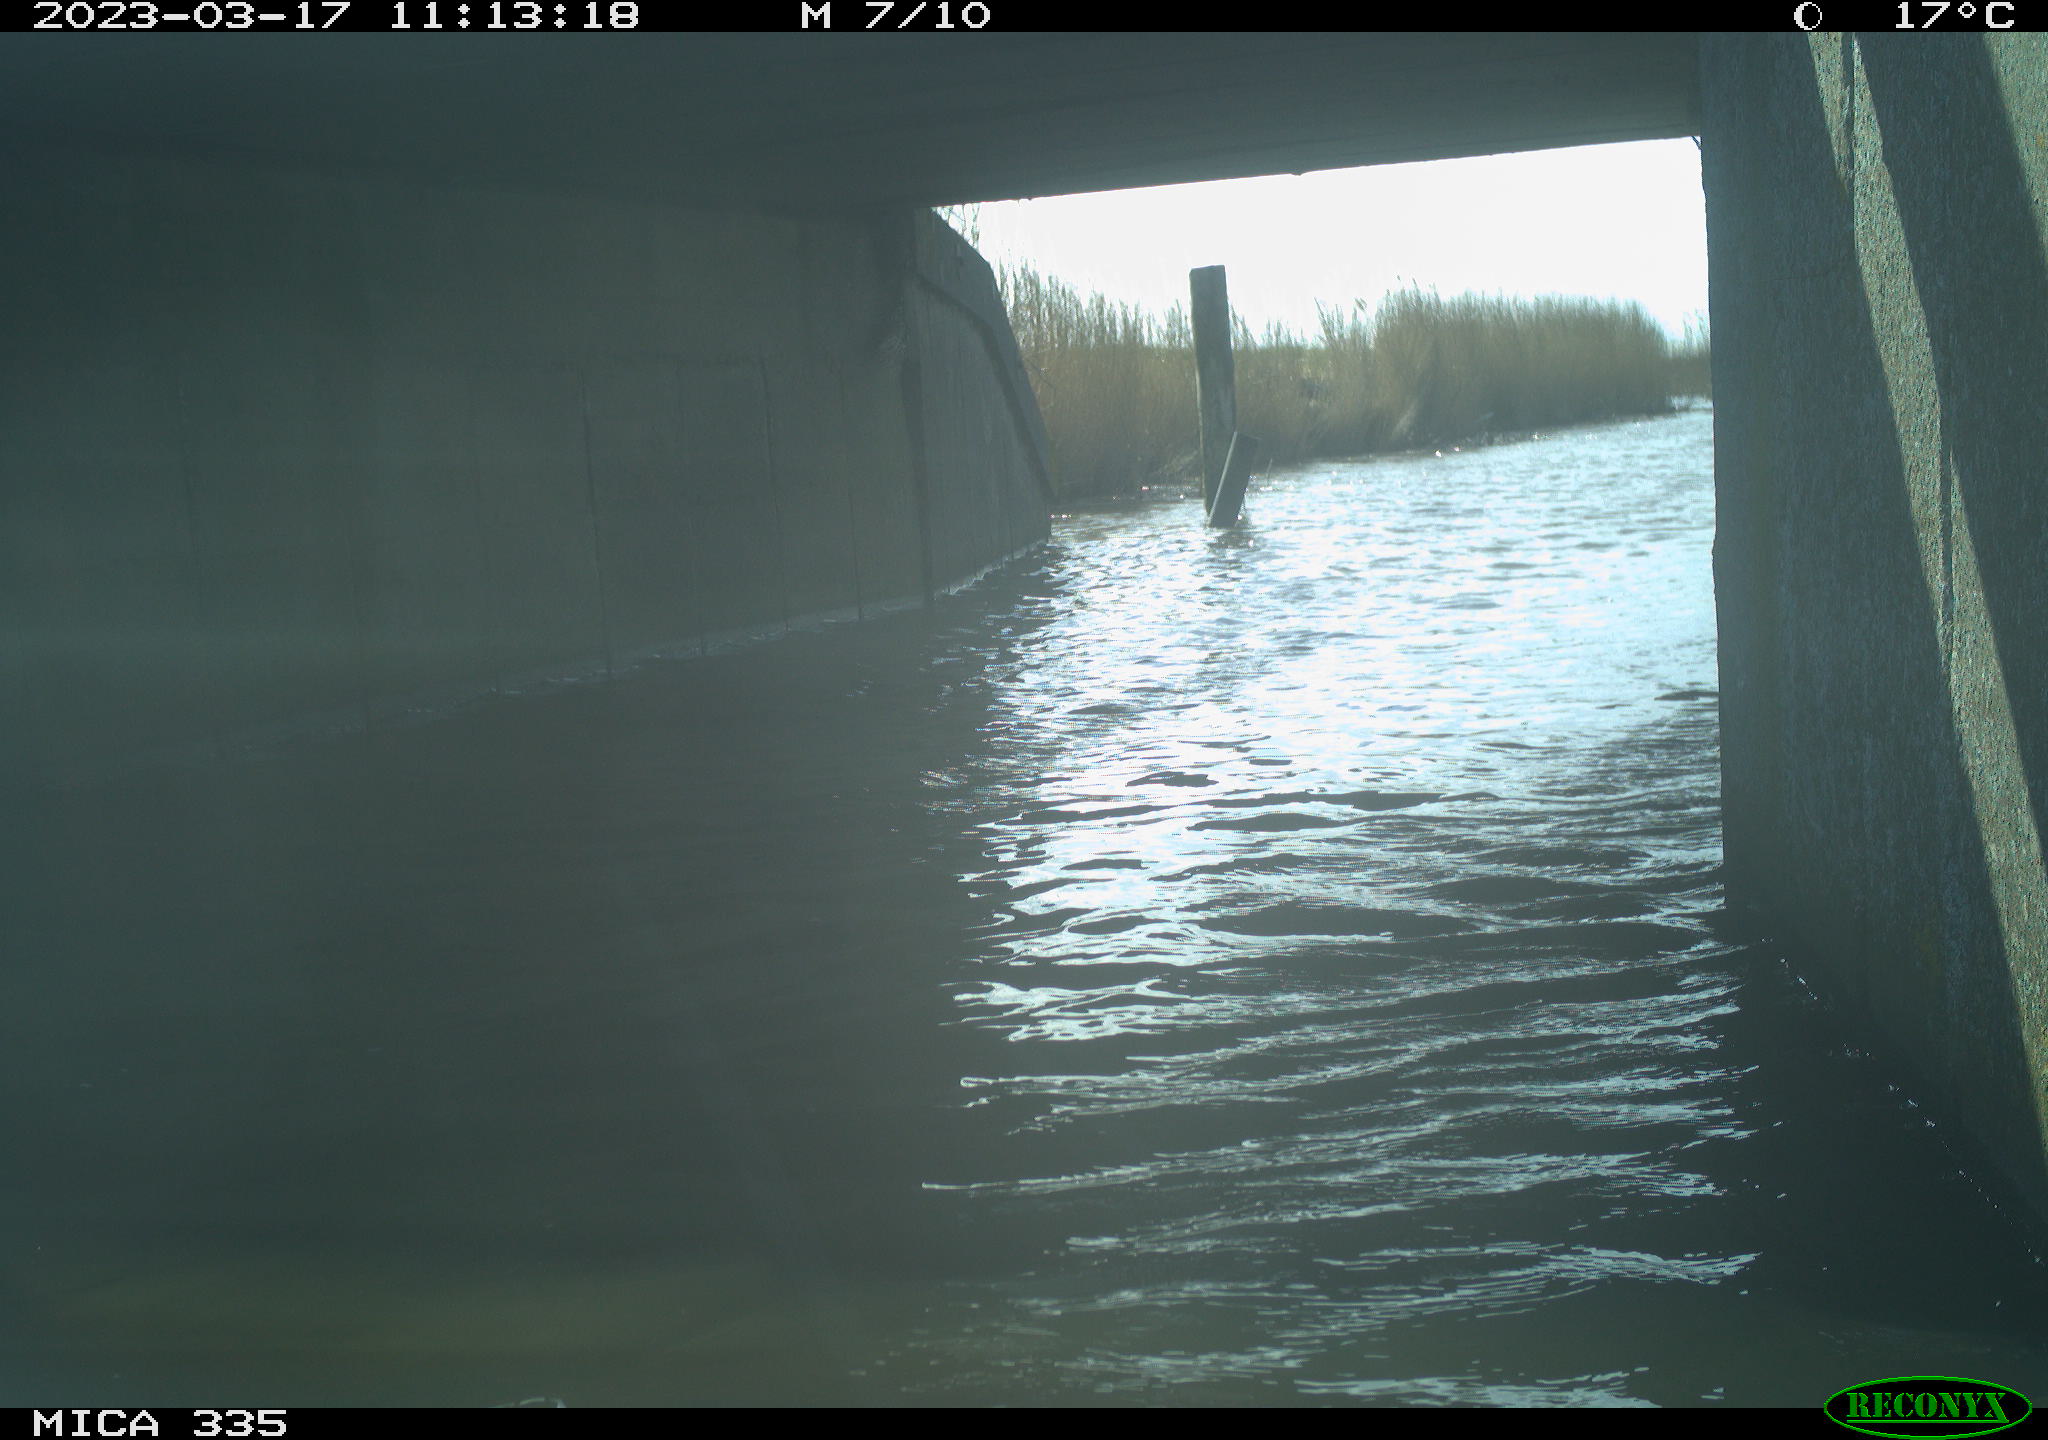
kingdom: Animalia
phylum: Chordata
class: Aves
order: Anseriformes
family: Anatidae
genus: Anas
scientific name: Anas
